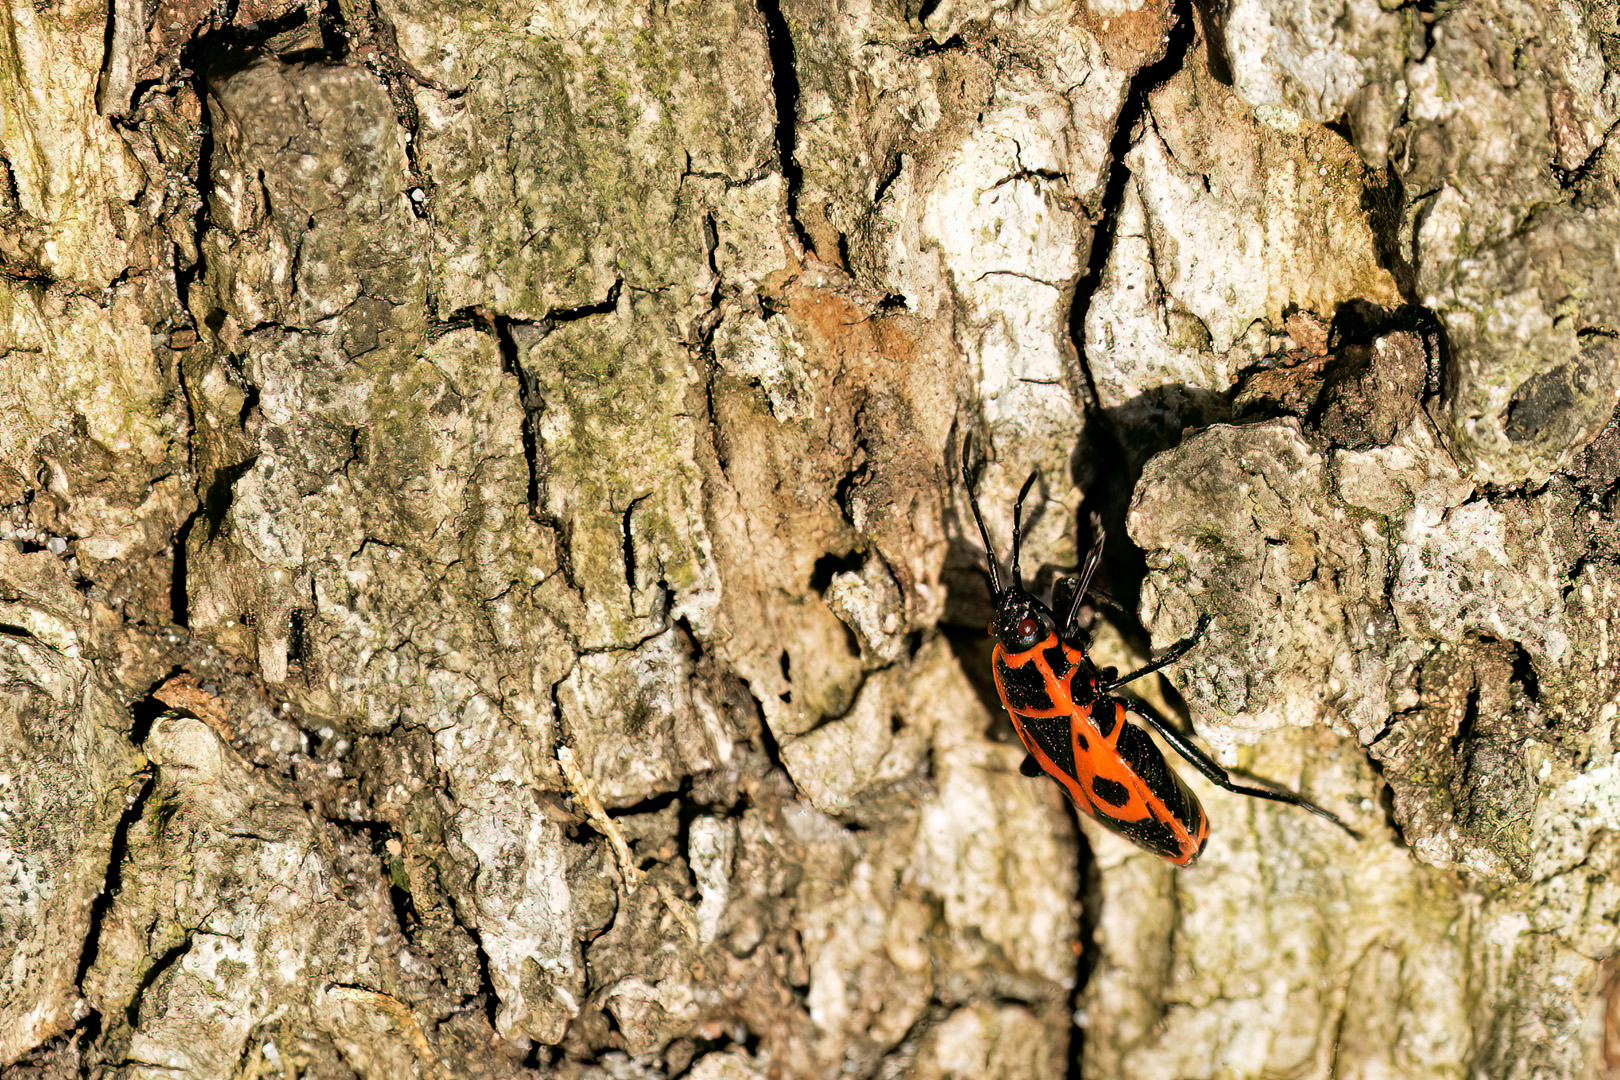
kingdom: Animalia
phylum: Arthropoda
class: Insecta
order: Hemiptera
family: Pyrrhocoridae
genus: Pyrrhocoris
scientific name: Pyrrhocoris apterus
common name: Ildtæge
